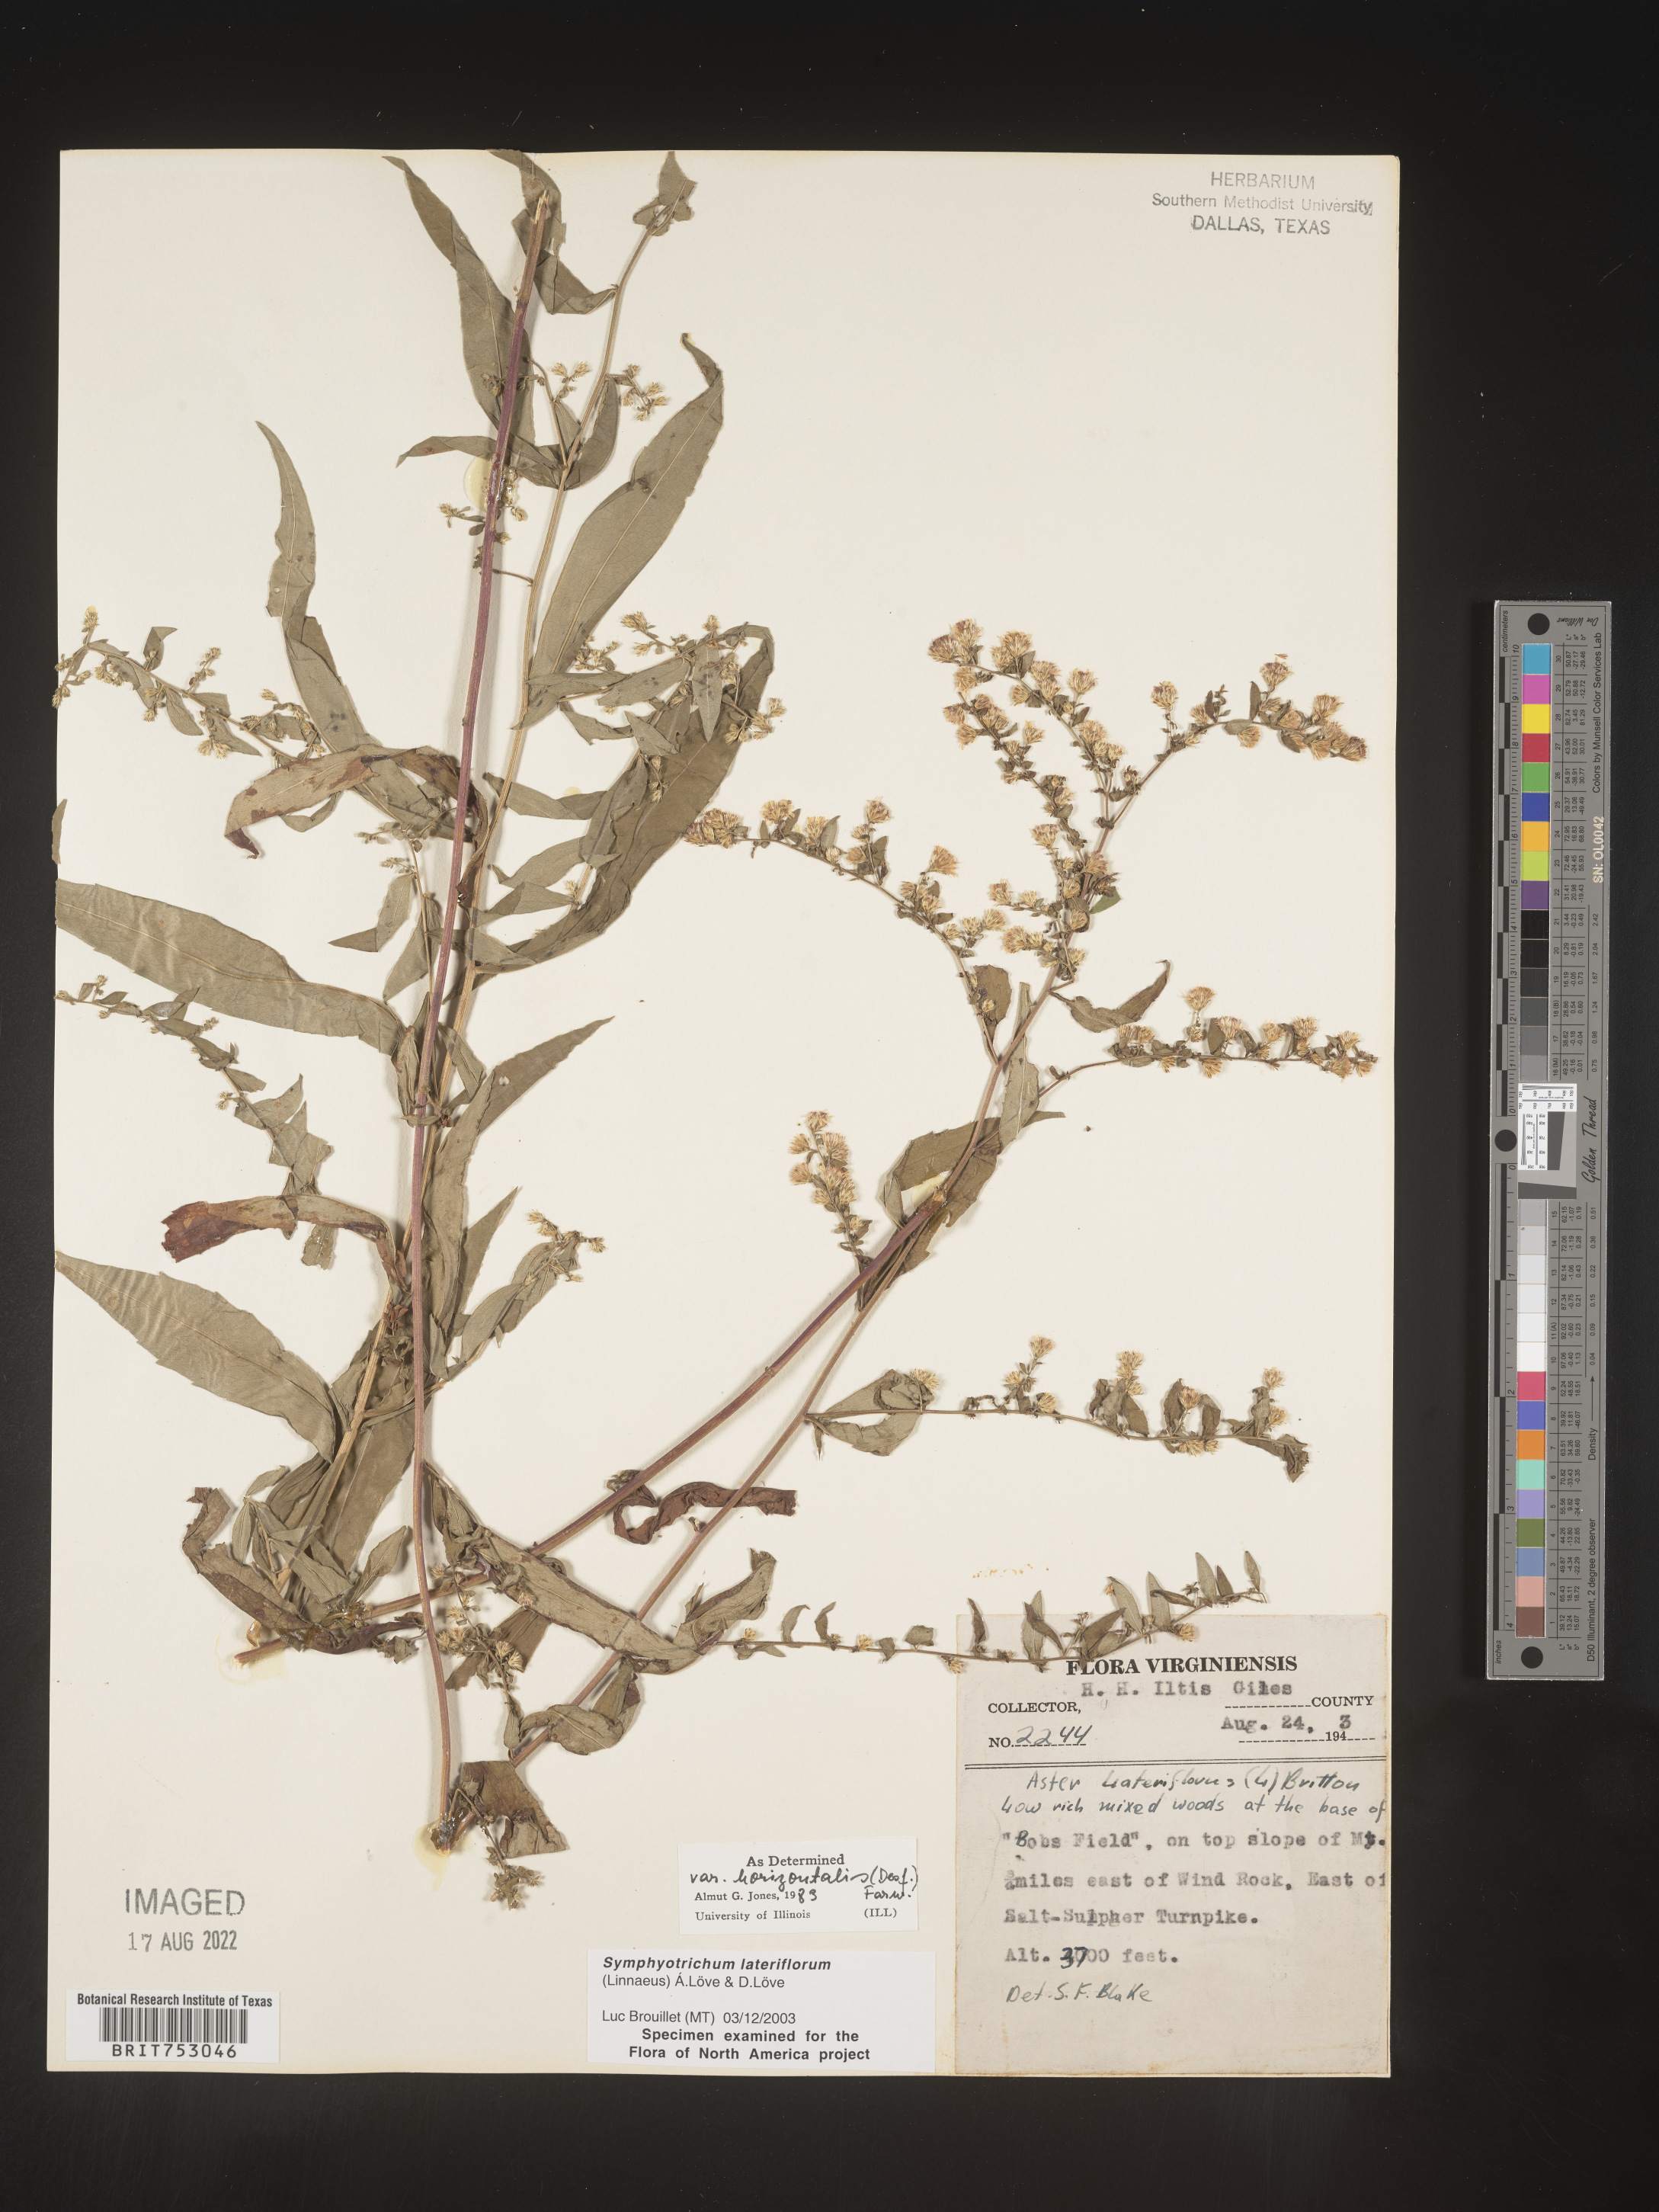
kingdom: Plantae
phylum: Tracheophyta
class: Magnoliopsida
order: Asterales
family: Asteraceae
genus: Symphyotrichum
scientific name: Symphyotrichum lateriflorum
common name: Calico aster
